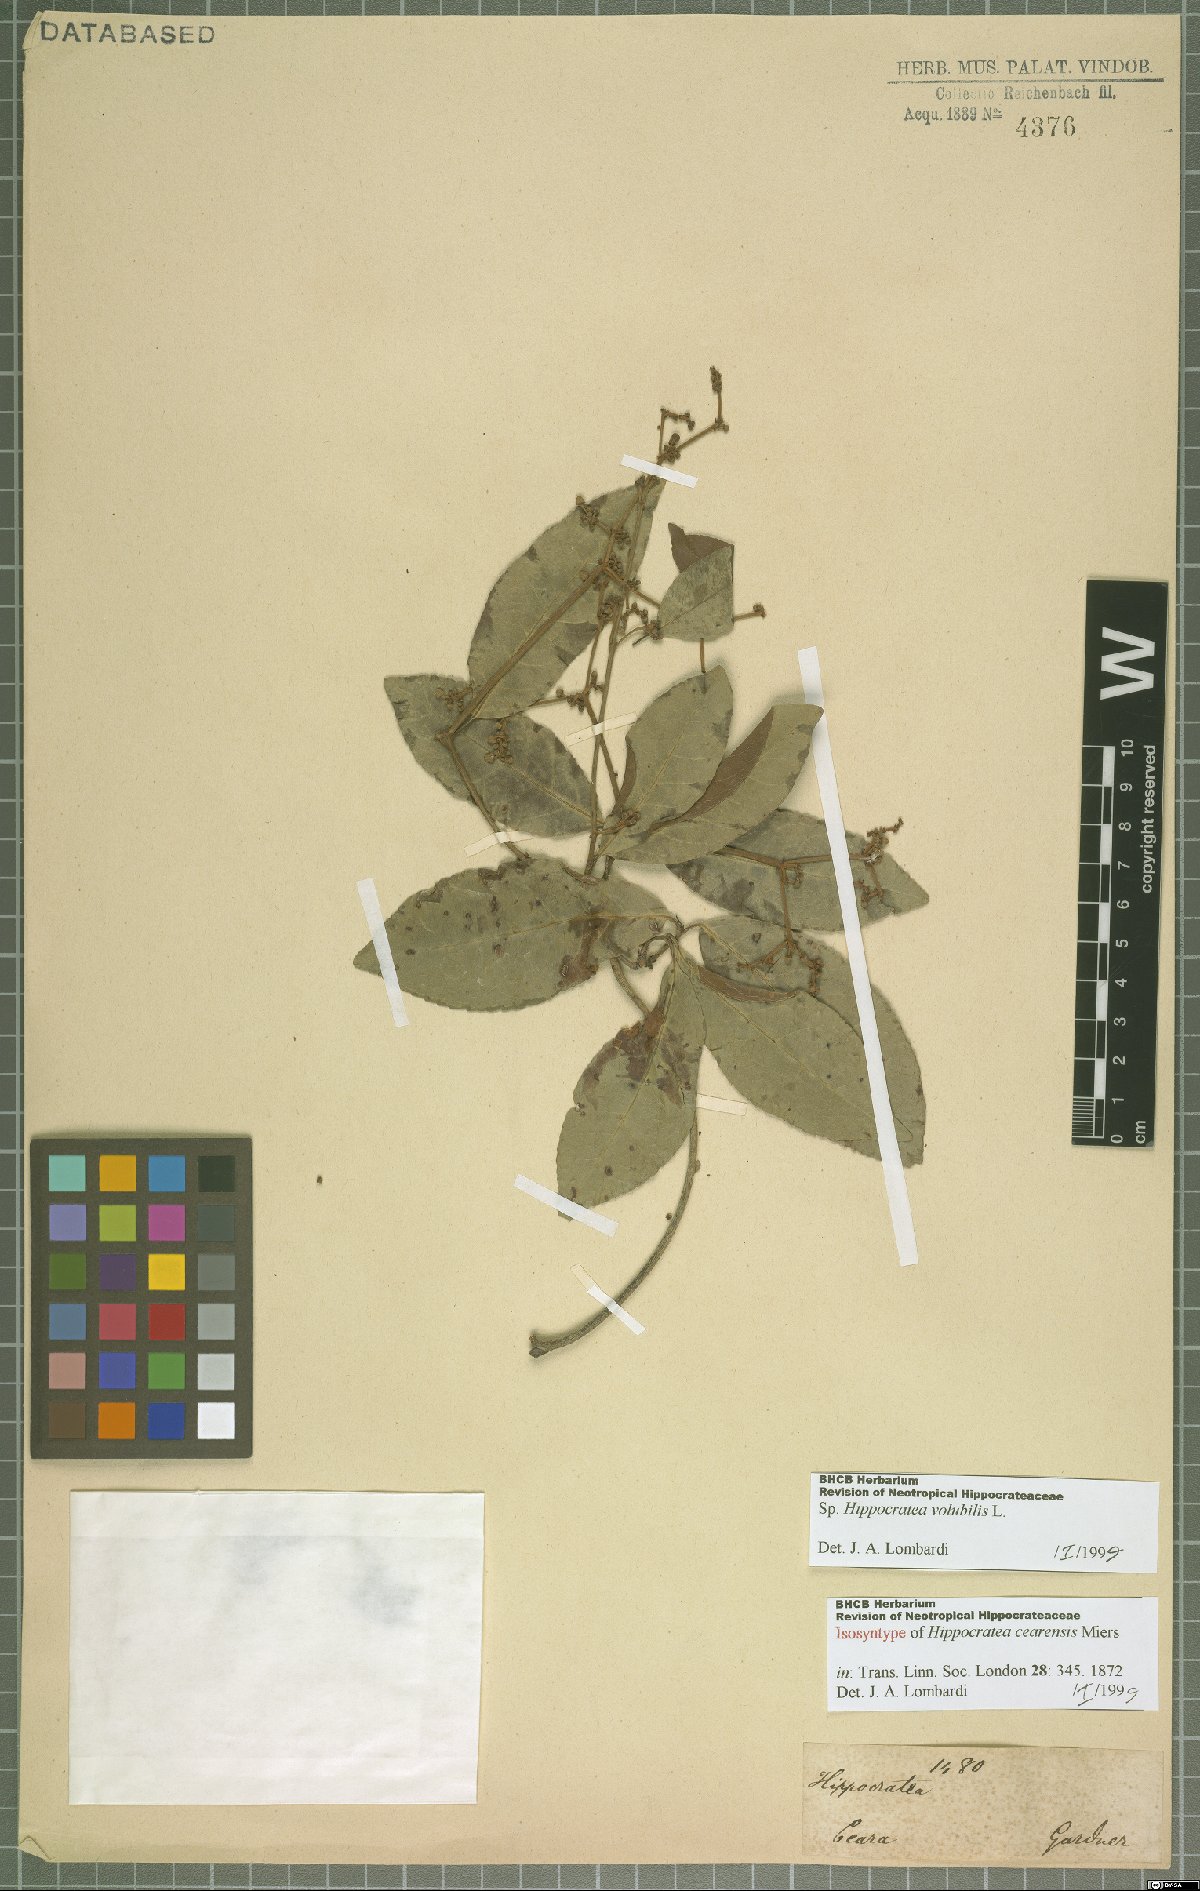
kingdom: Plantae
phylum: Tracheophyta
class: Magnoliopsida
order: Celastrales
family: Celastraceae
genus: Hippocratea
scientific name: Hippocratea volubilis
